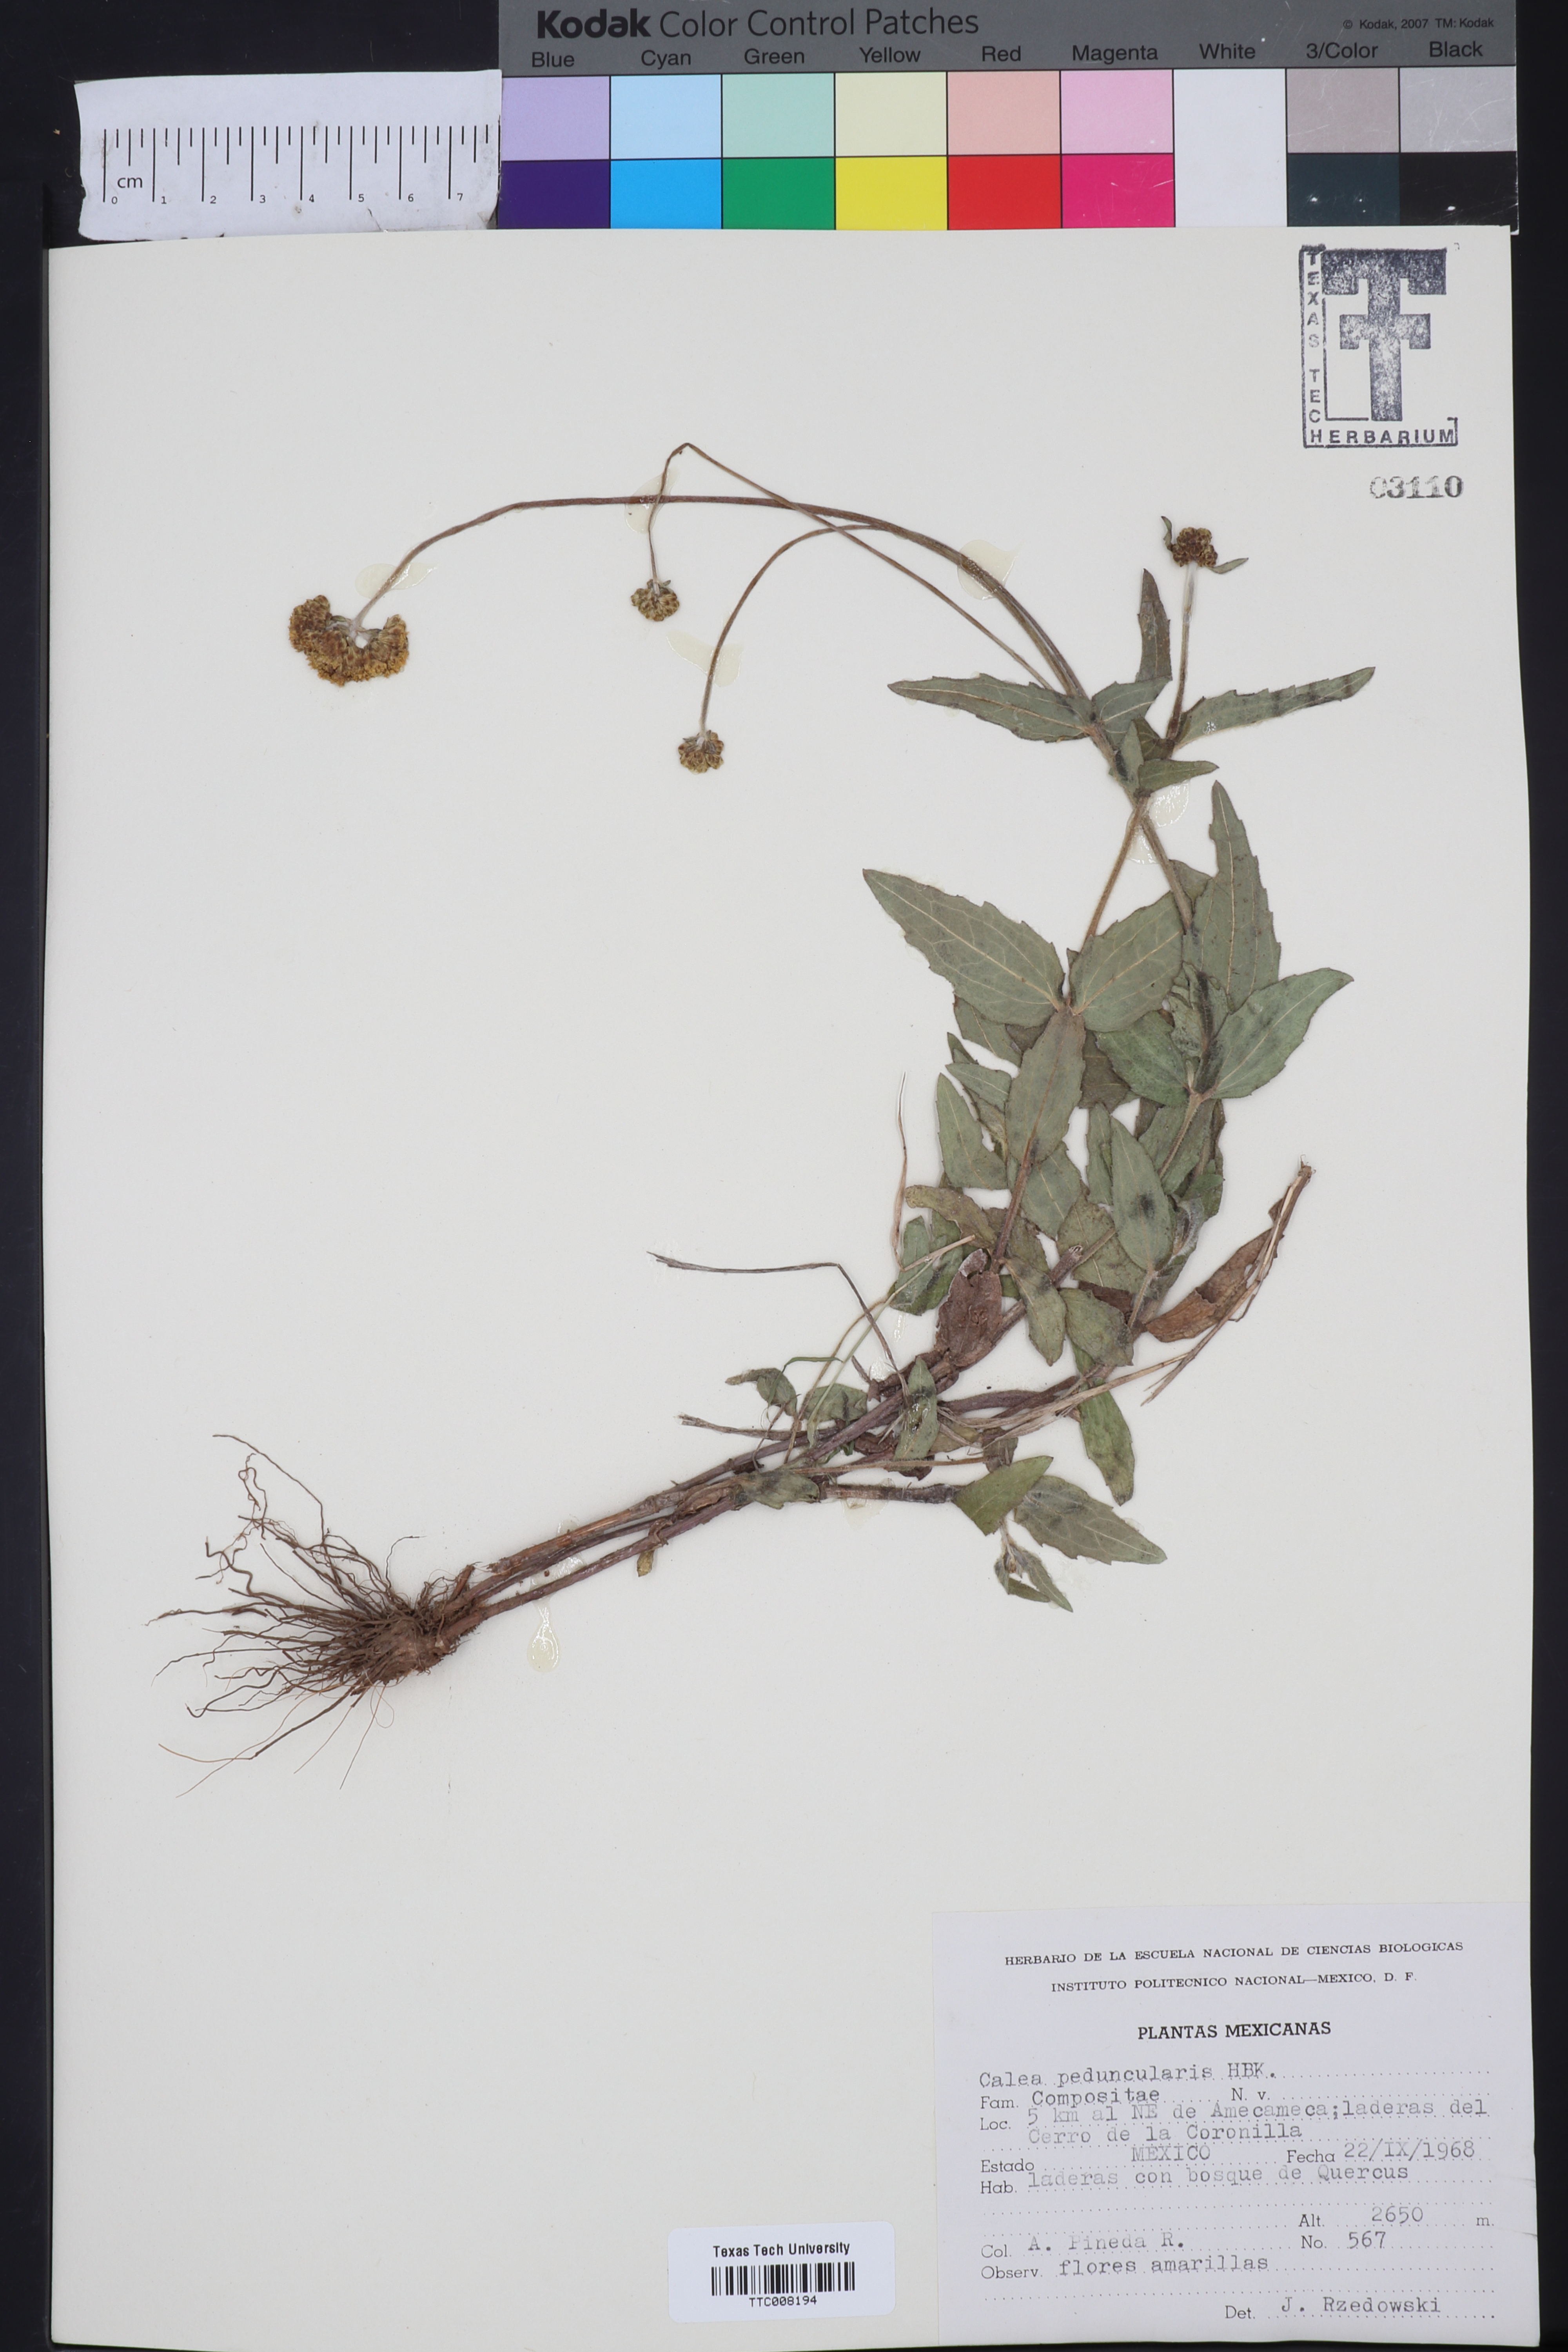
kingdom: Plantae
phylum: Tracheophyta
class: Magnoliopsida
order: Asterales
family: Asteraceae
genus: Alloispermum
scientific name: Alloispermum scabrum
